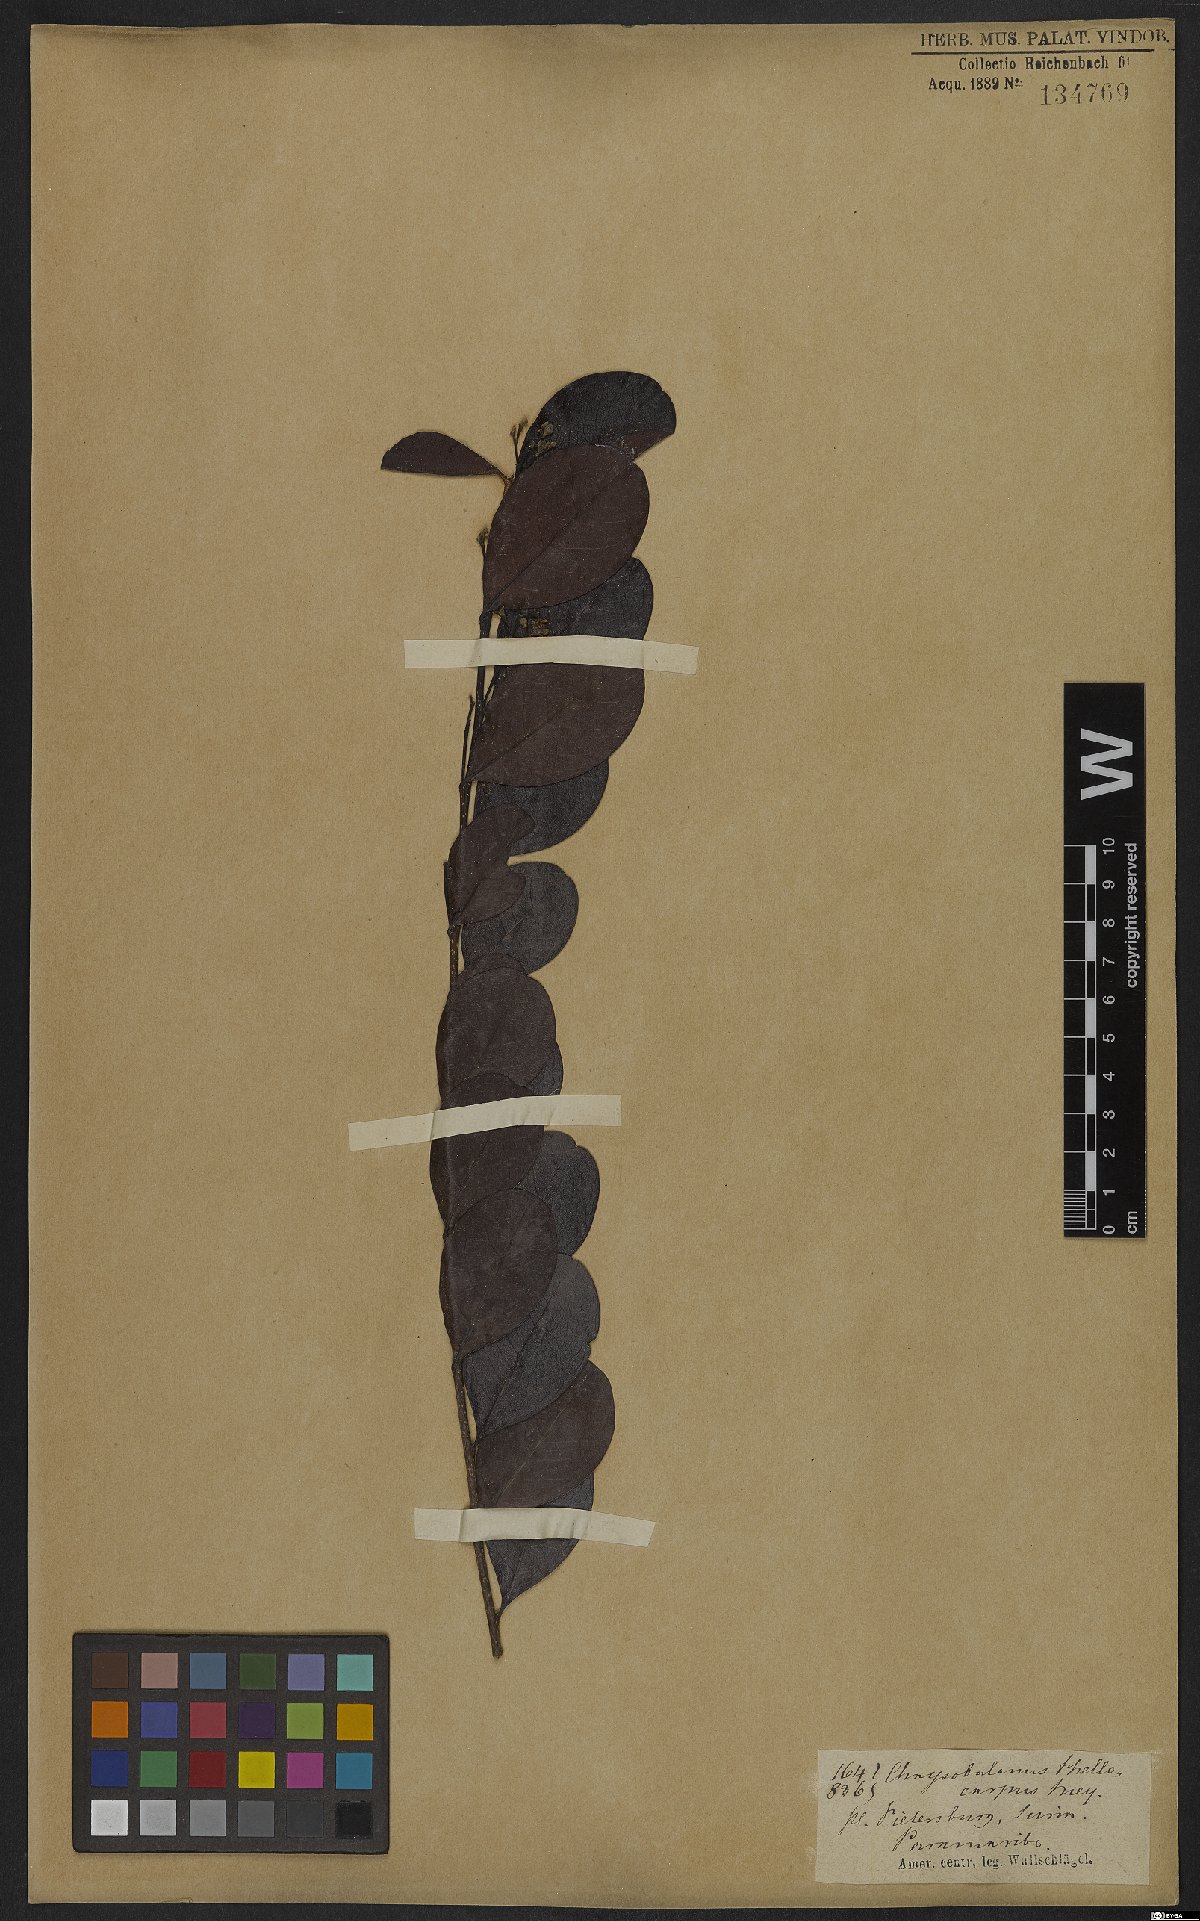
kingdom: Plantae
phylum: Tracheophyta
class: Magnoliopsida
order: Malpighiales
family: Chrysobalanaceae
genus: Chrysobalanus
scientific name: Chrysobalanus icaco
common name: Coco plum
